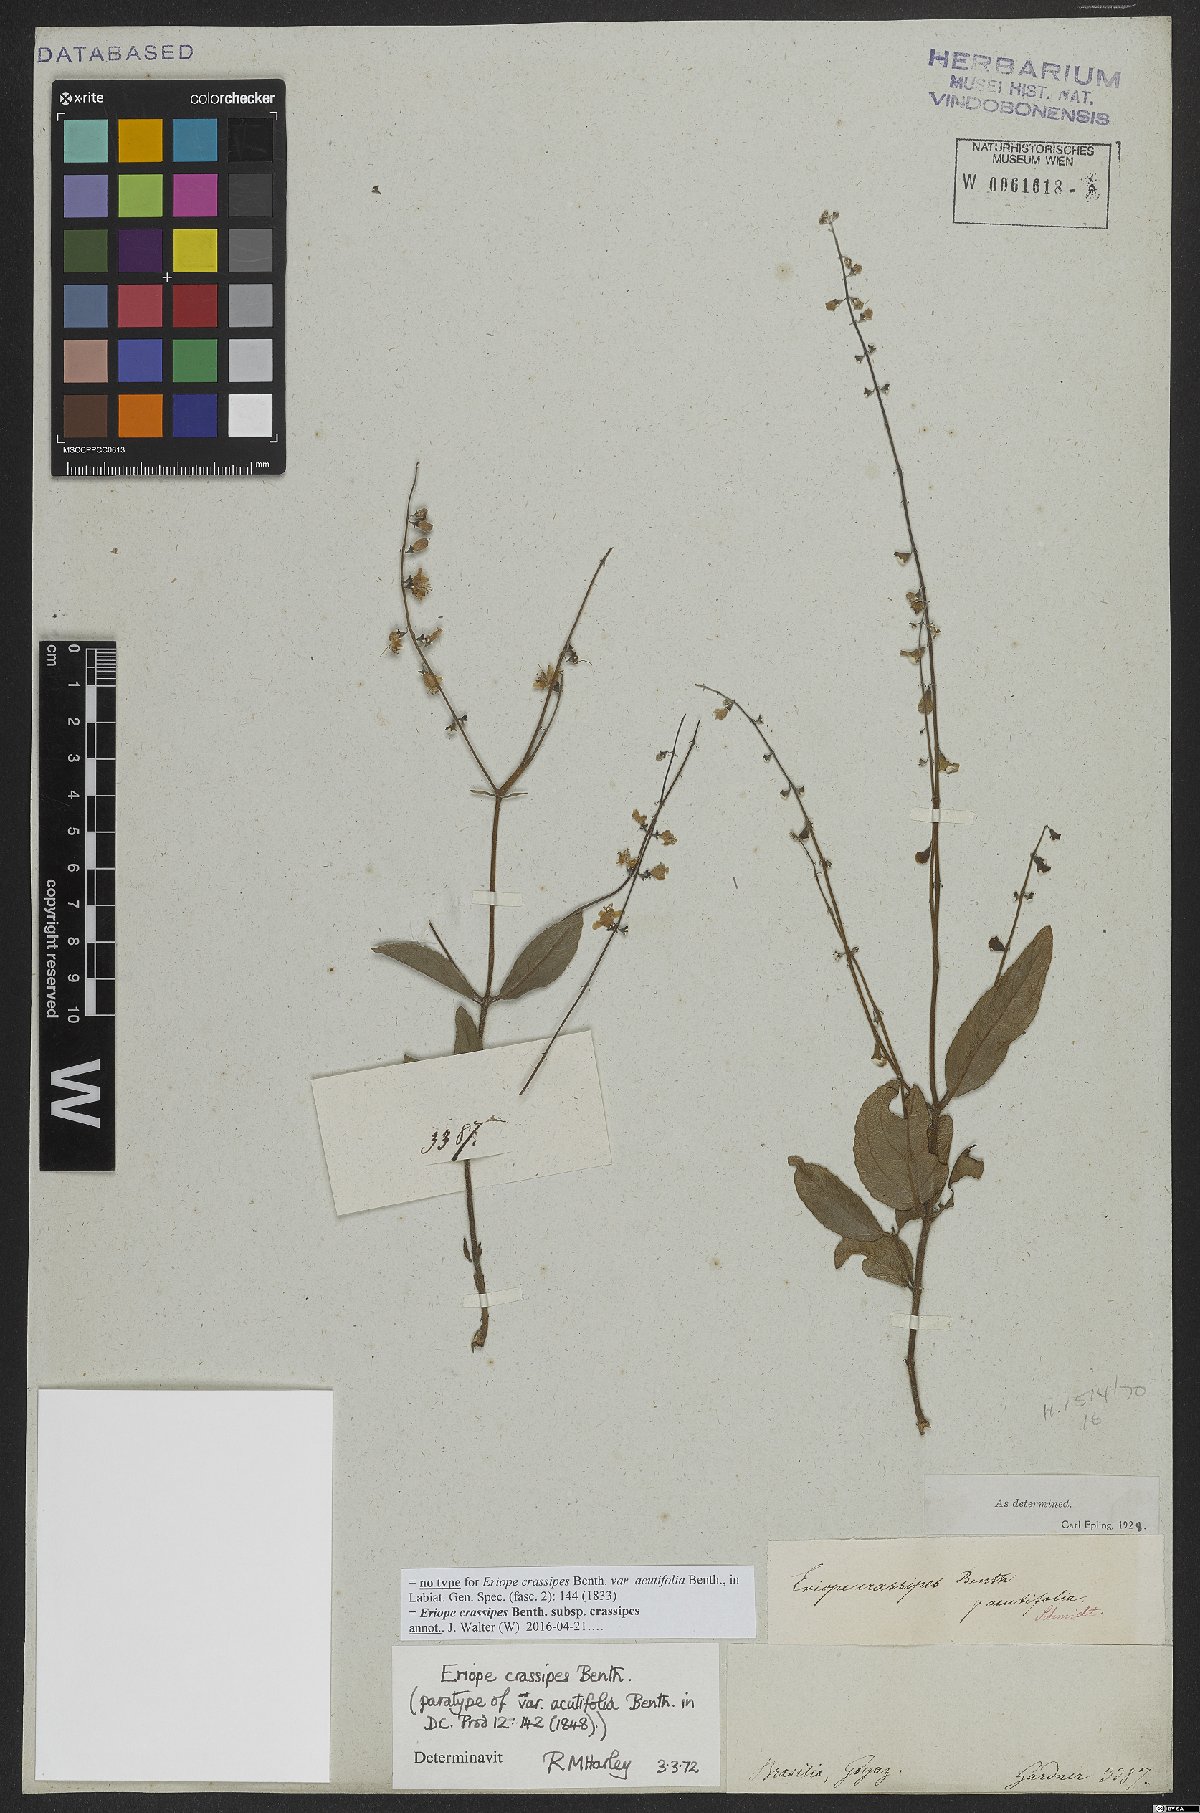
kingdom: Plantae
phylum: Tracheophyta
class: Magnoliopsida
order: Lamiales
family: Lamiaceae
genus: Eriope
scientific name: Eriope crassipes
